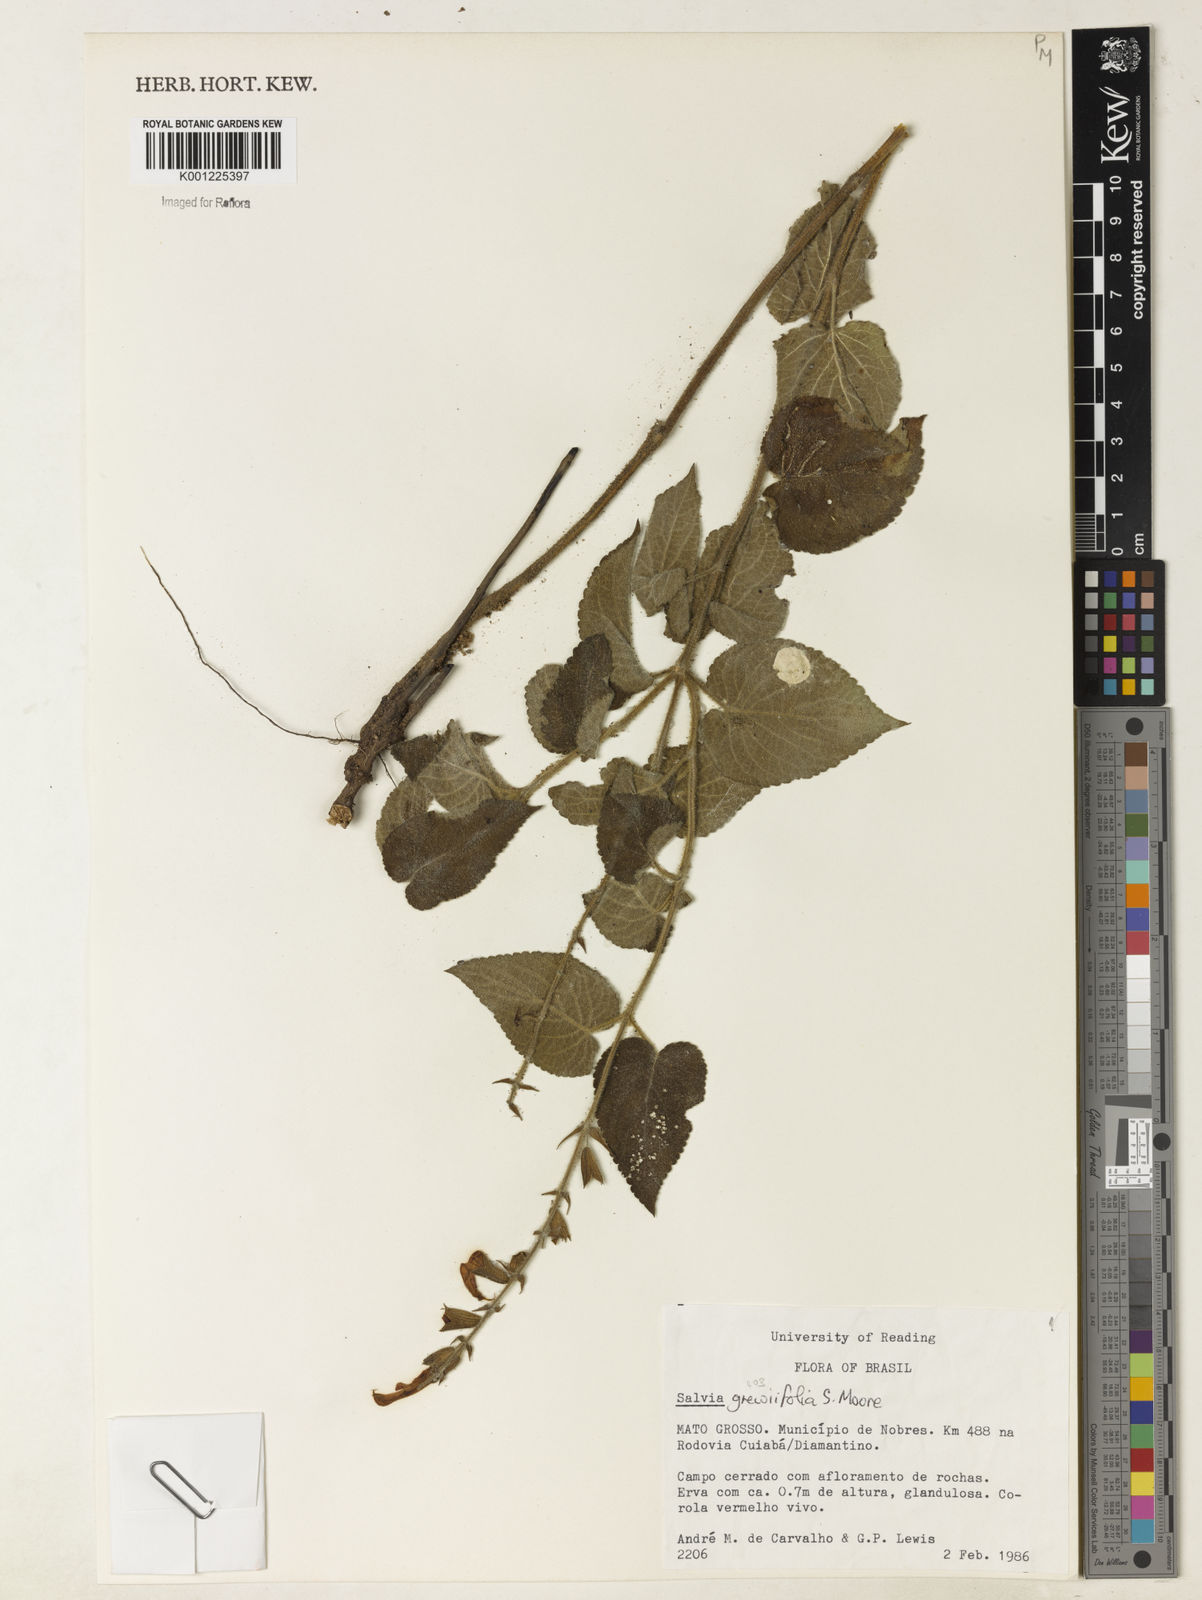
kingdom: Plantae
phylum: Tracheophyta
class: Magnoliopsida
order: Lamiales
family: Lamiaceae
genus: Salvia
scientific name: Salvia grewiifolia
